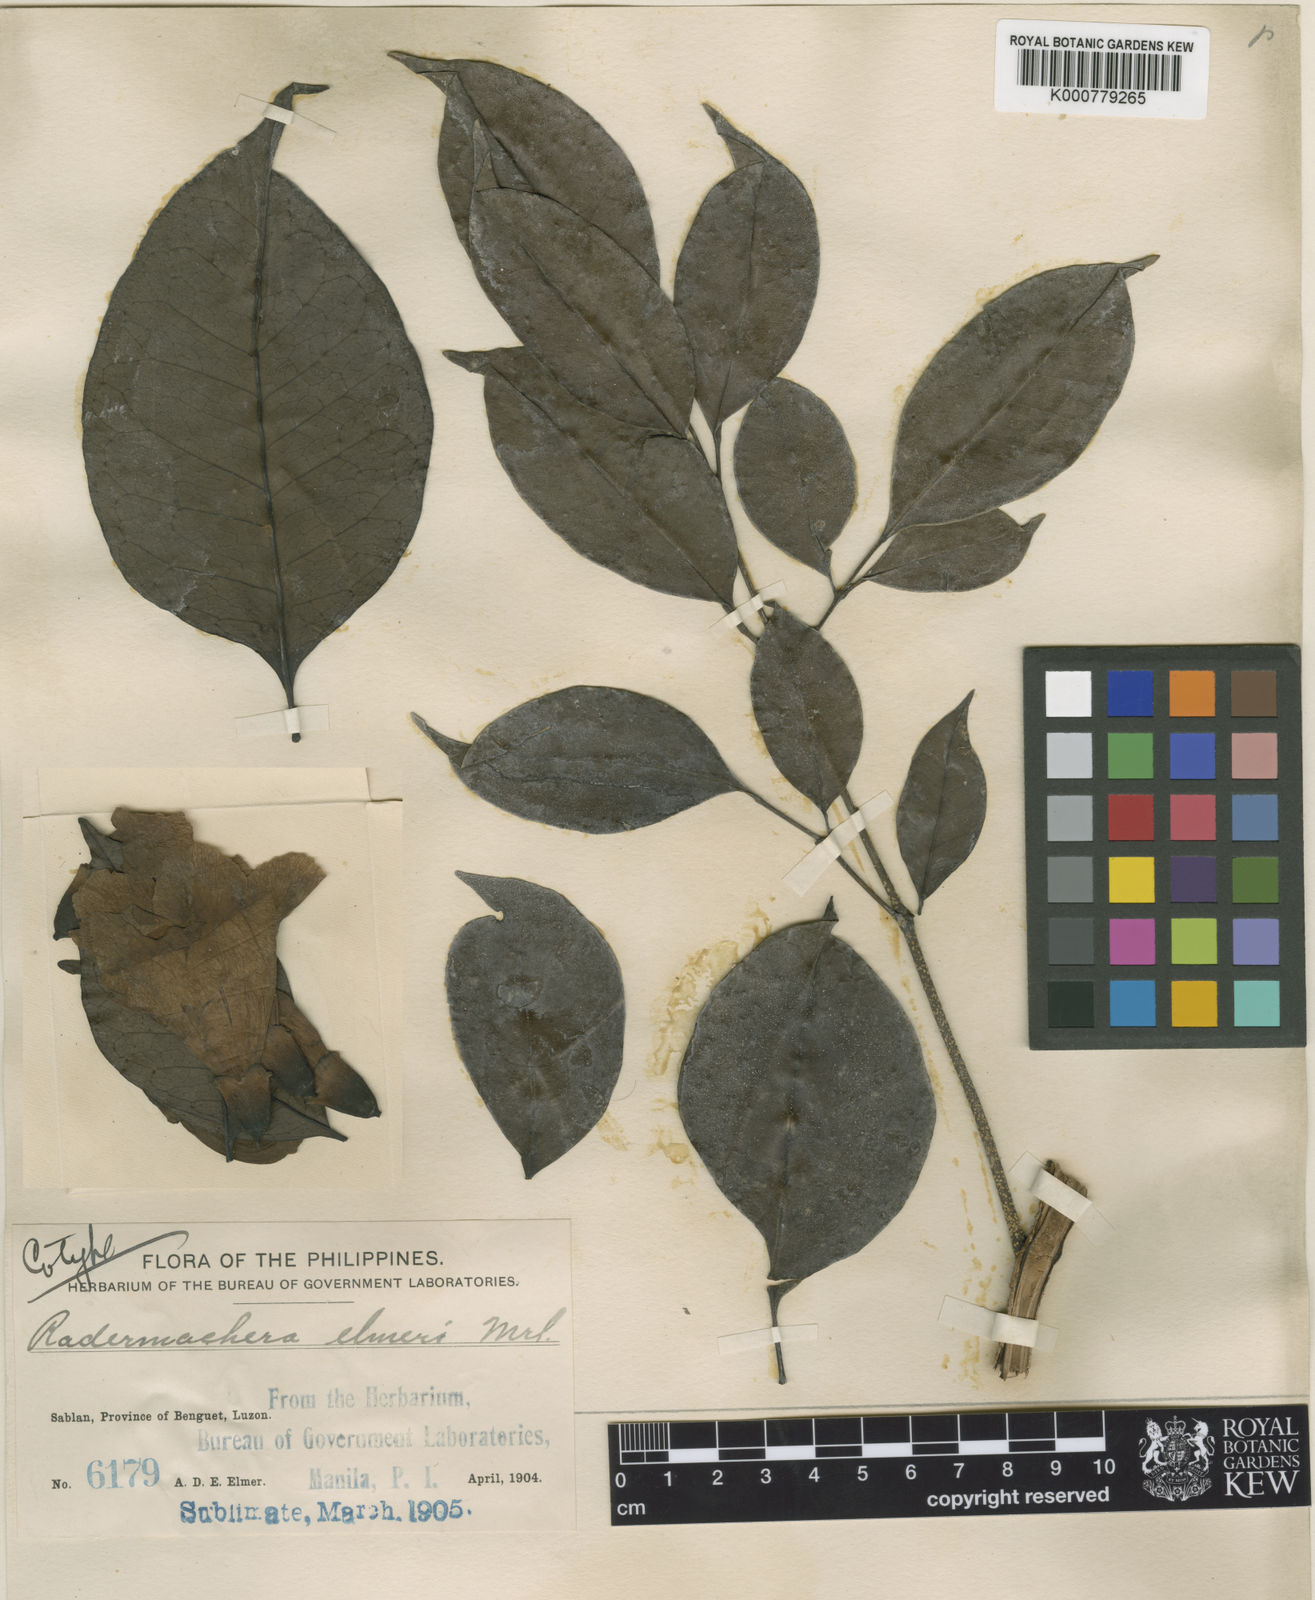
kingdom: Plantae
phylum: Tracheophyta
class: Magnoliopsida
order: Lamiales
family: Bignoniaceae
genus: Radermachera
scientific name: Radermachera gigantea
